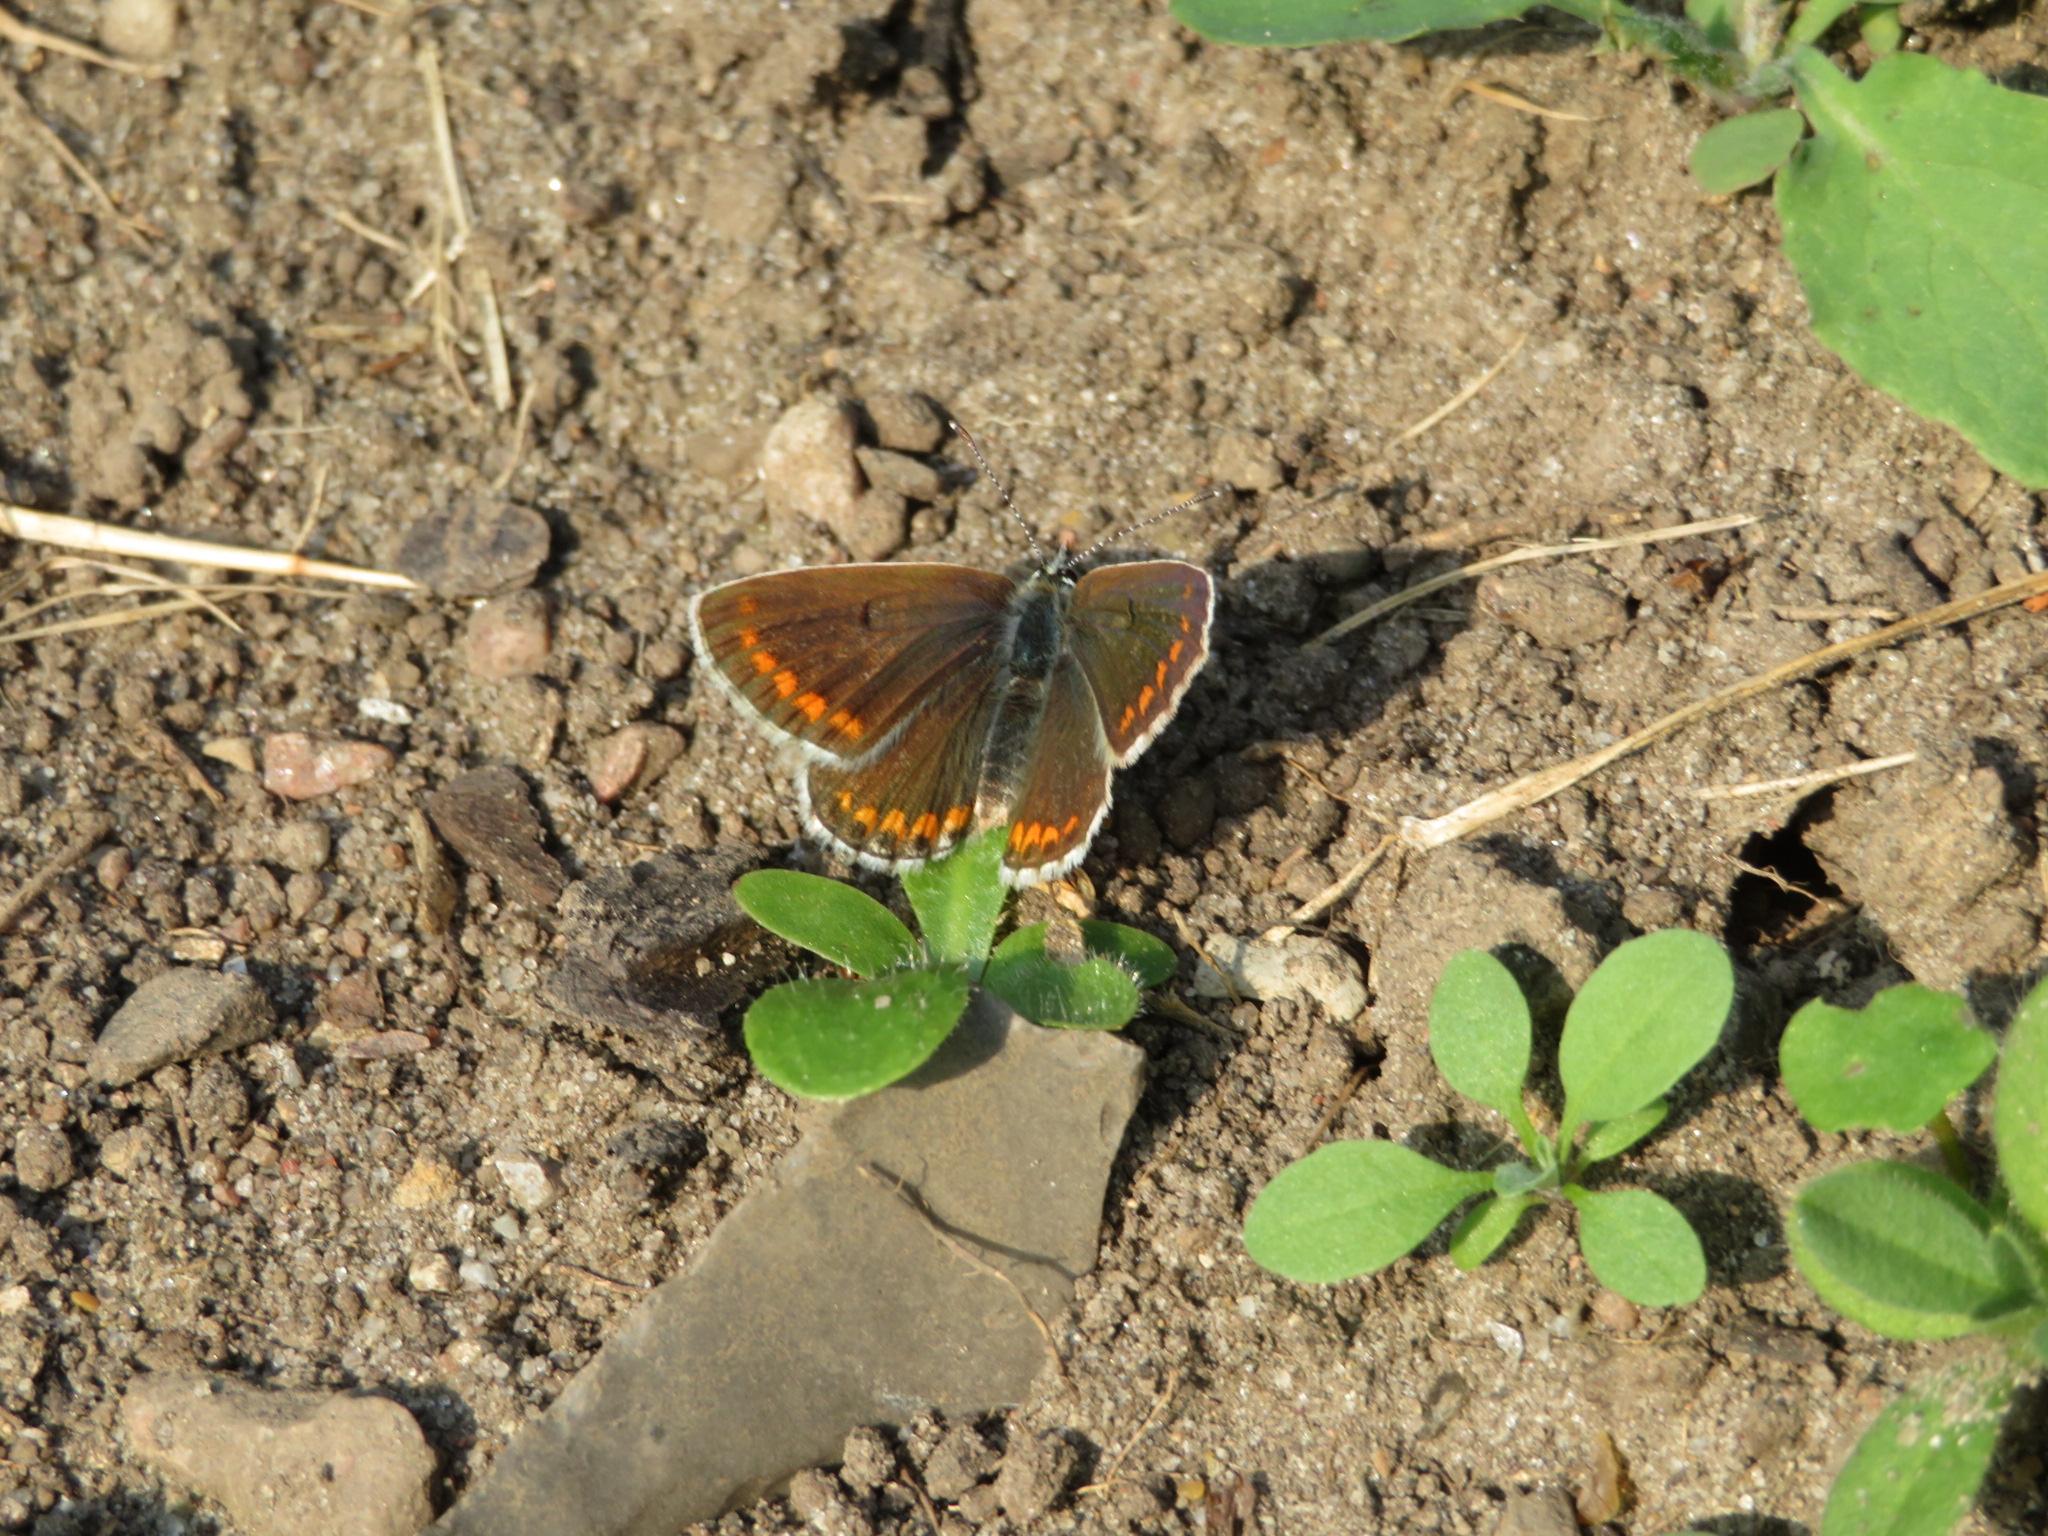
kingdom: Animalia
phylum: Arthropoda
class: Insecta
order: Lepidoptera
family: Lycaenidae
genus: Aricia
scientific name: Aricia agestis
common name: Rødplettet blåfugl
